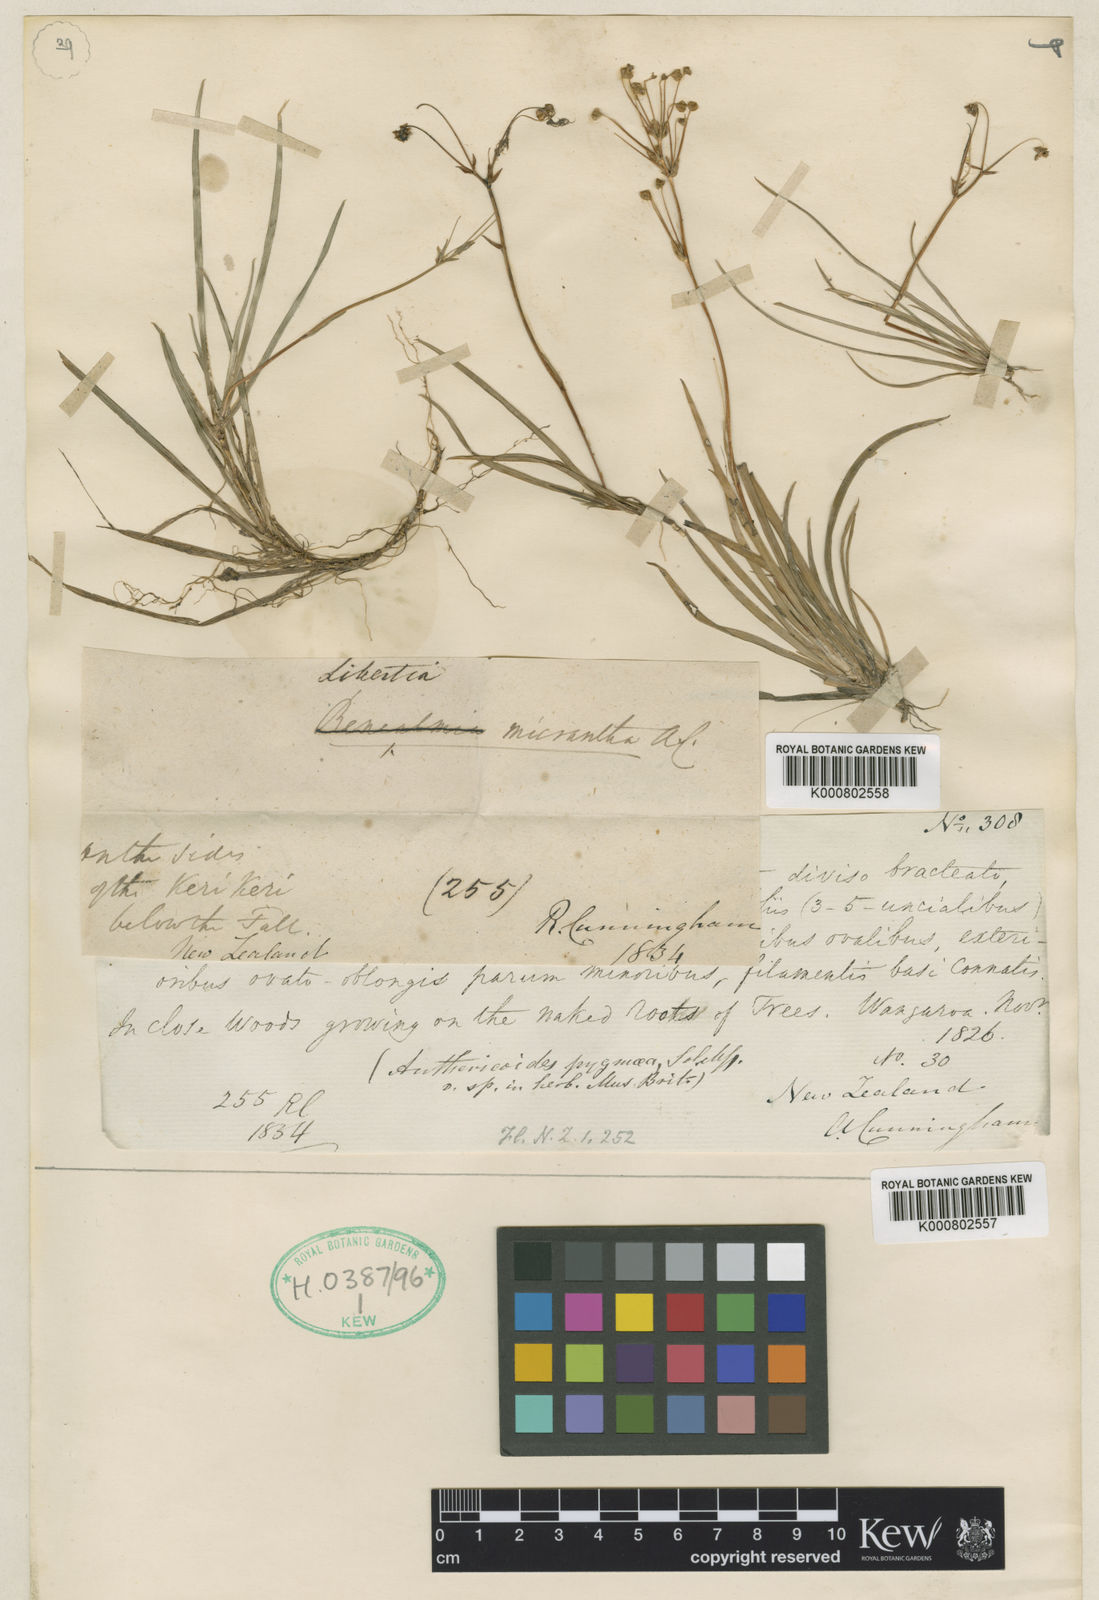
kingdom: Plantae
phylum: Tracheophyta
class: Liliopsida
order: Asparagales
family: Iridaceae
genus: Libertia
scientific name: Libertia micrantha
